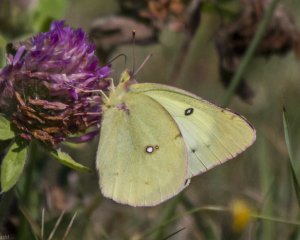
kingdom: Animalia
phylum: Arthropoda
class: Insecta
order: Lepidoptera
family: Pieridae
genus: Colias
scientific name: Colias philodice
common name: Clouded Sulphur
